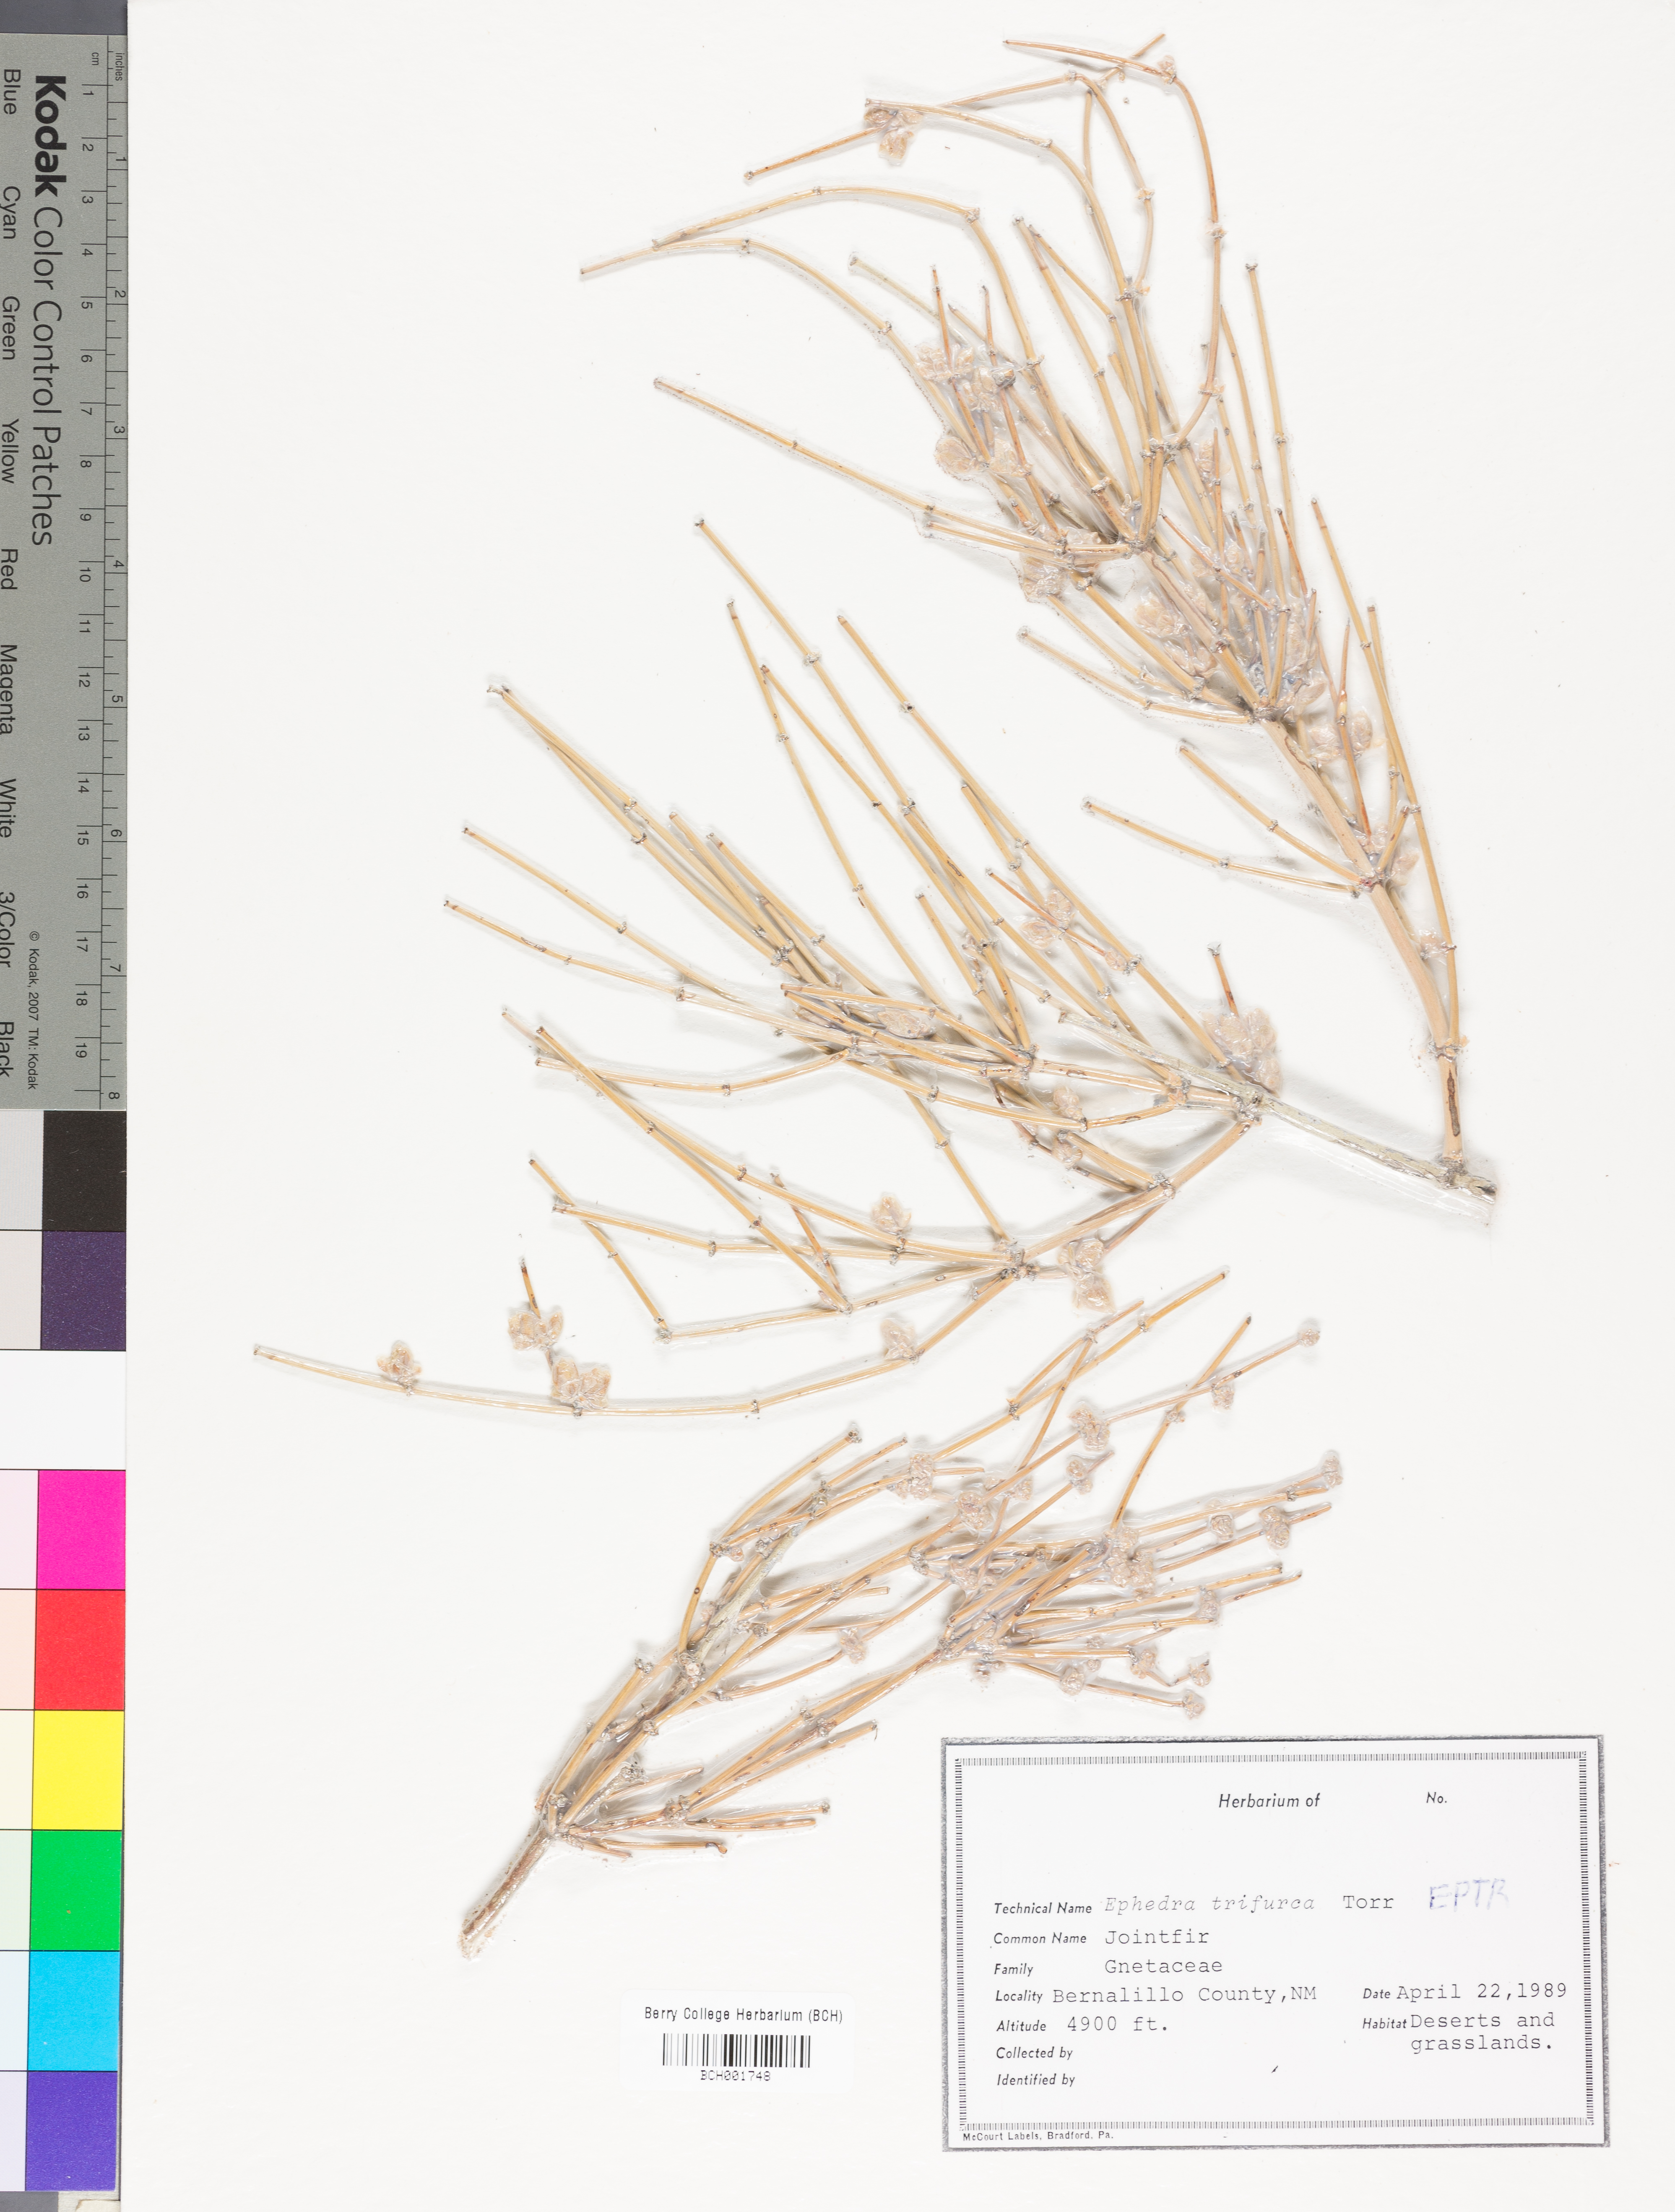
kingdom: Plantae
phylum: Tracheophyta
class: Gnetopsida
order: Ephedrales
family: Ephedraceae
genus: Ephedra
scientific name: Ephedra trifurca
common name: Mexican-tea
